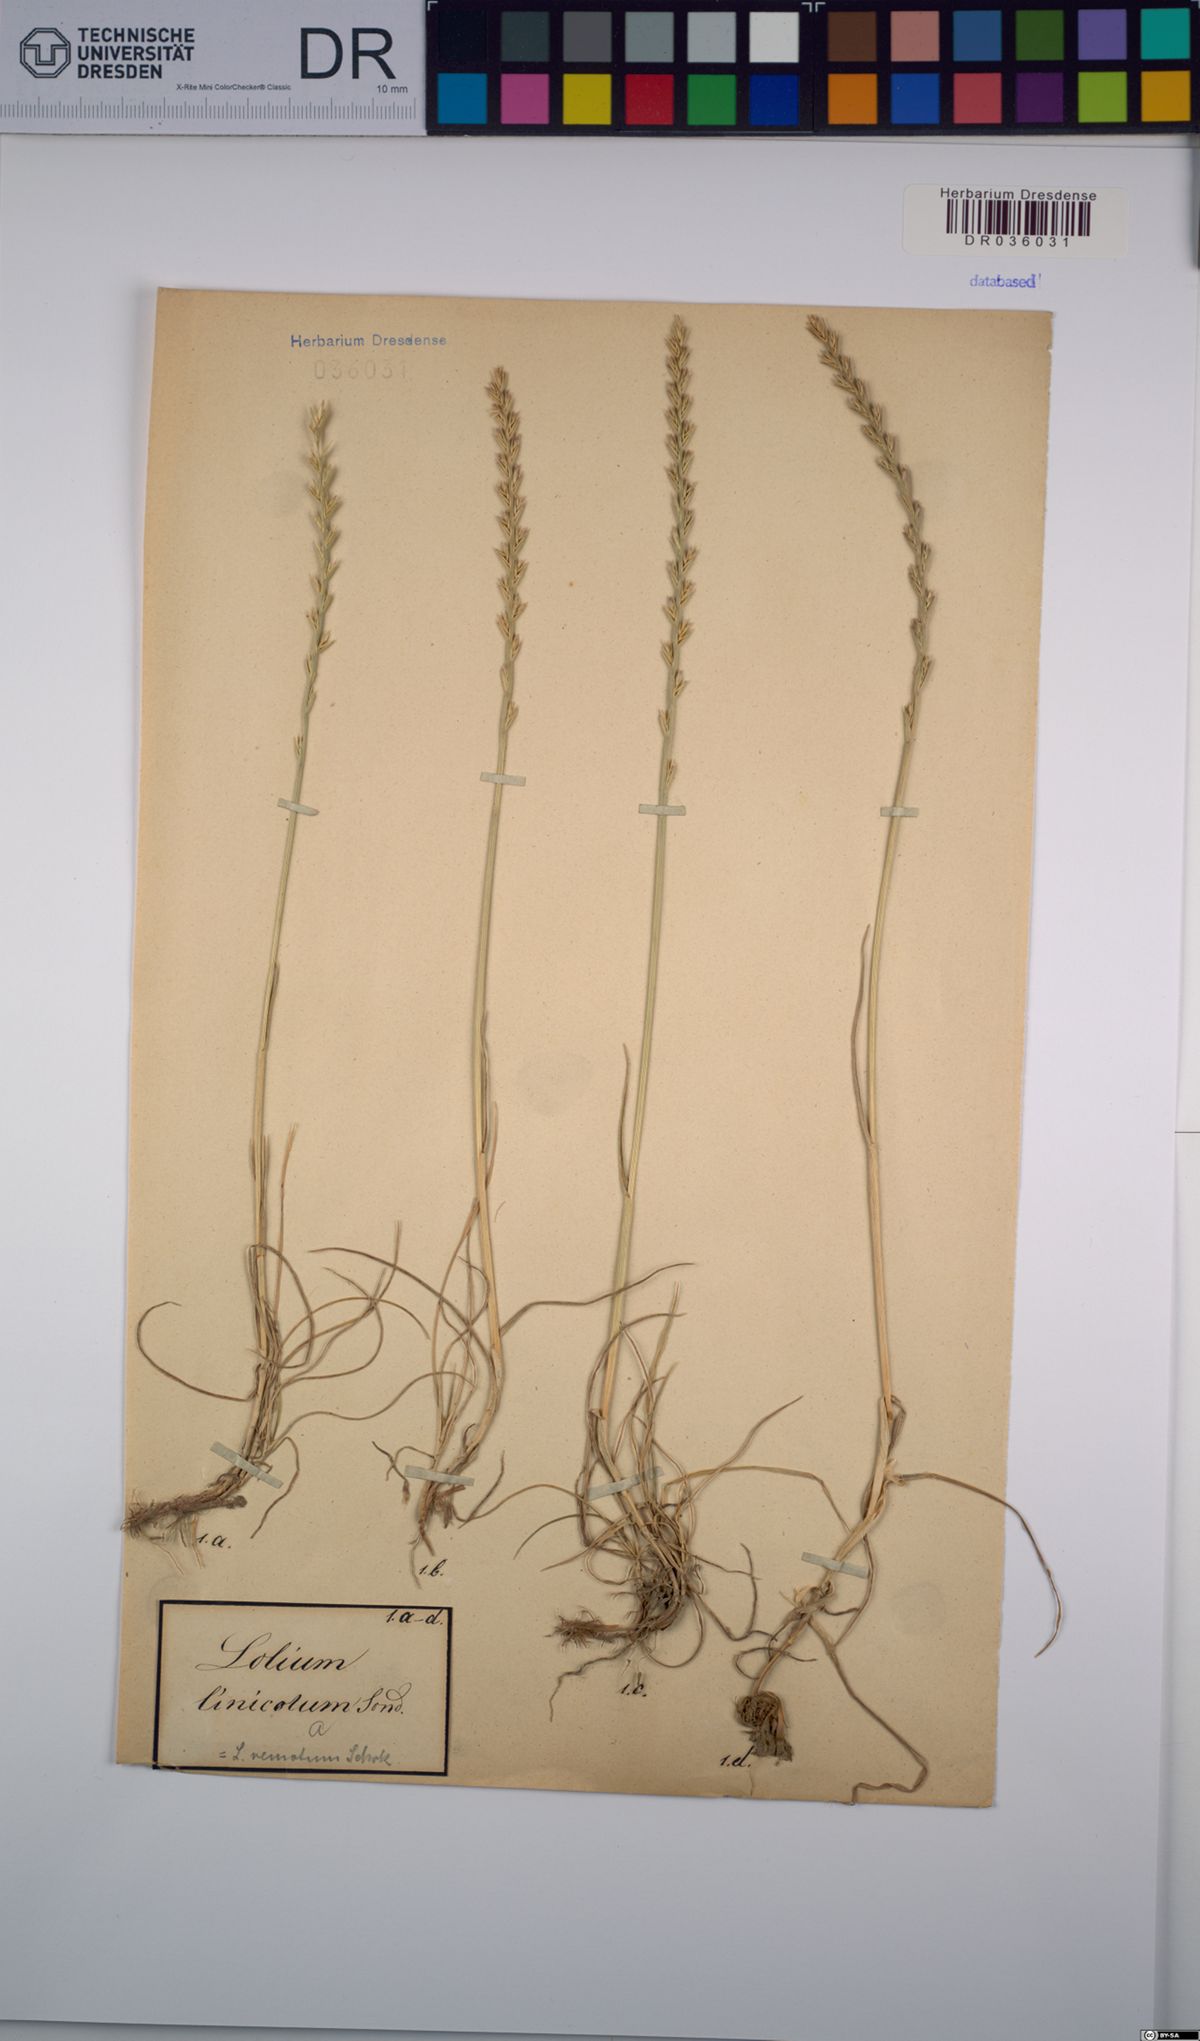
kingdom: Plantae
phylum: Tracheophyta
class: Liliopsida
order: Poales
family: Poaceae
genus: Lolium
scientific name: Lolium remotum
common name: Flaxfield rye-grass
